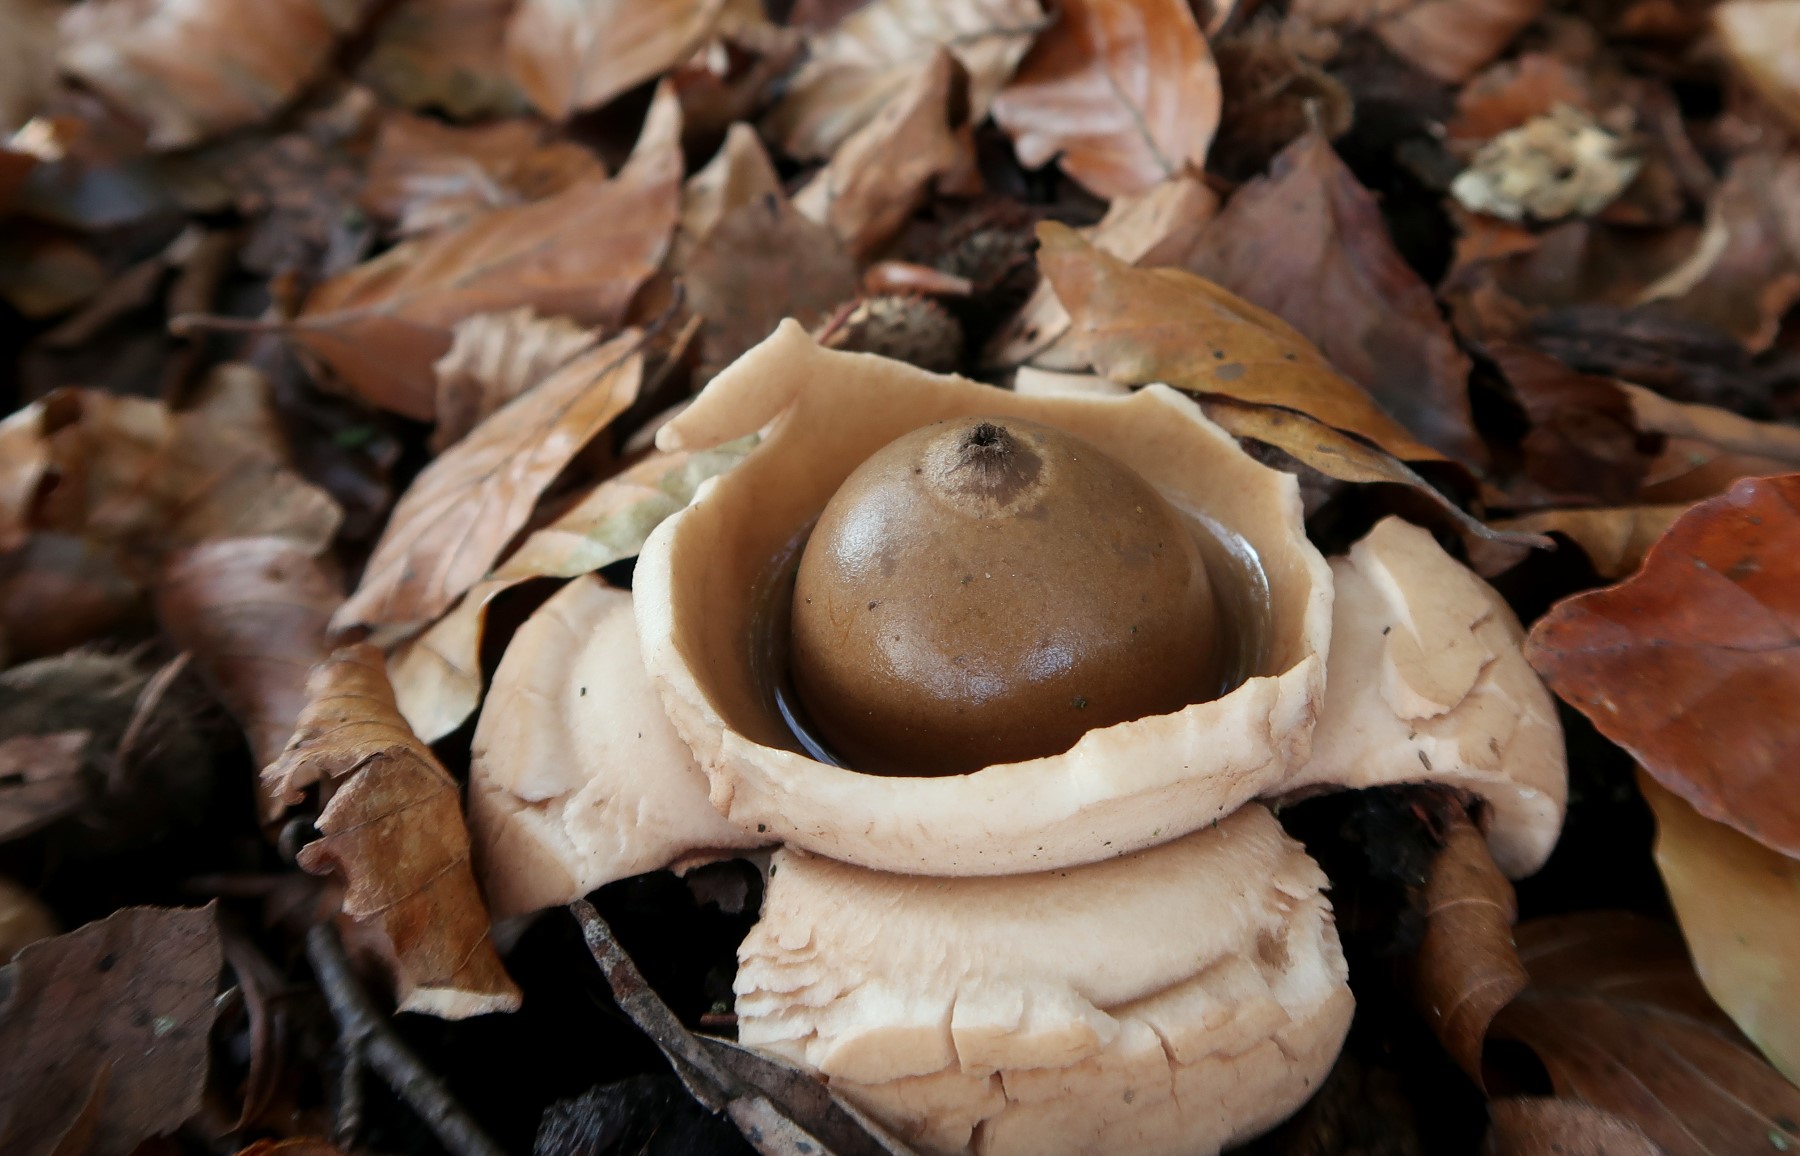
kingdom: Fungi
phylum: Basidiomycota
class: Agaricomycetes
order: Geastrales
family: Geastraceae
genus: Geastrum
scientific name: Geastrum michelianum
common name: kødet stjernebold
